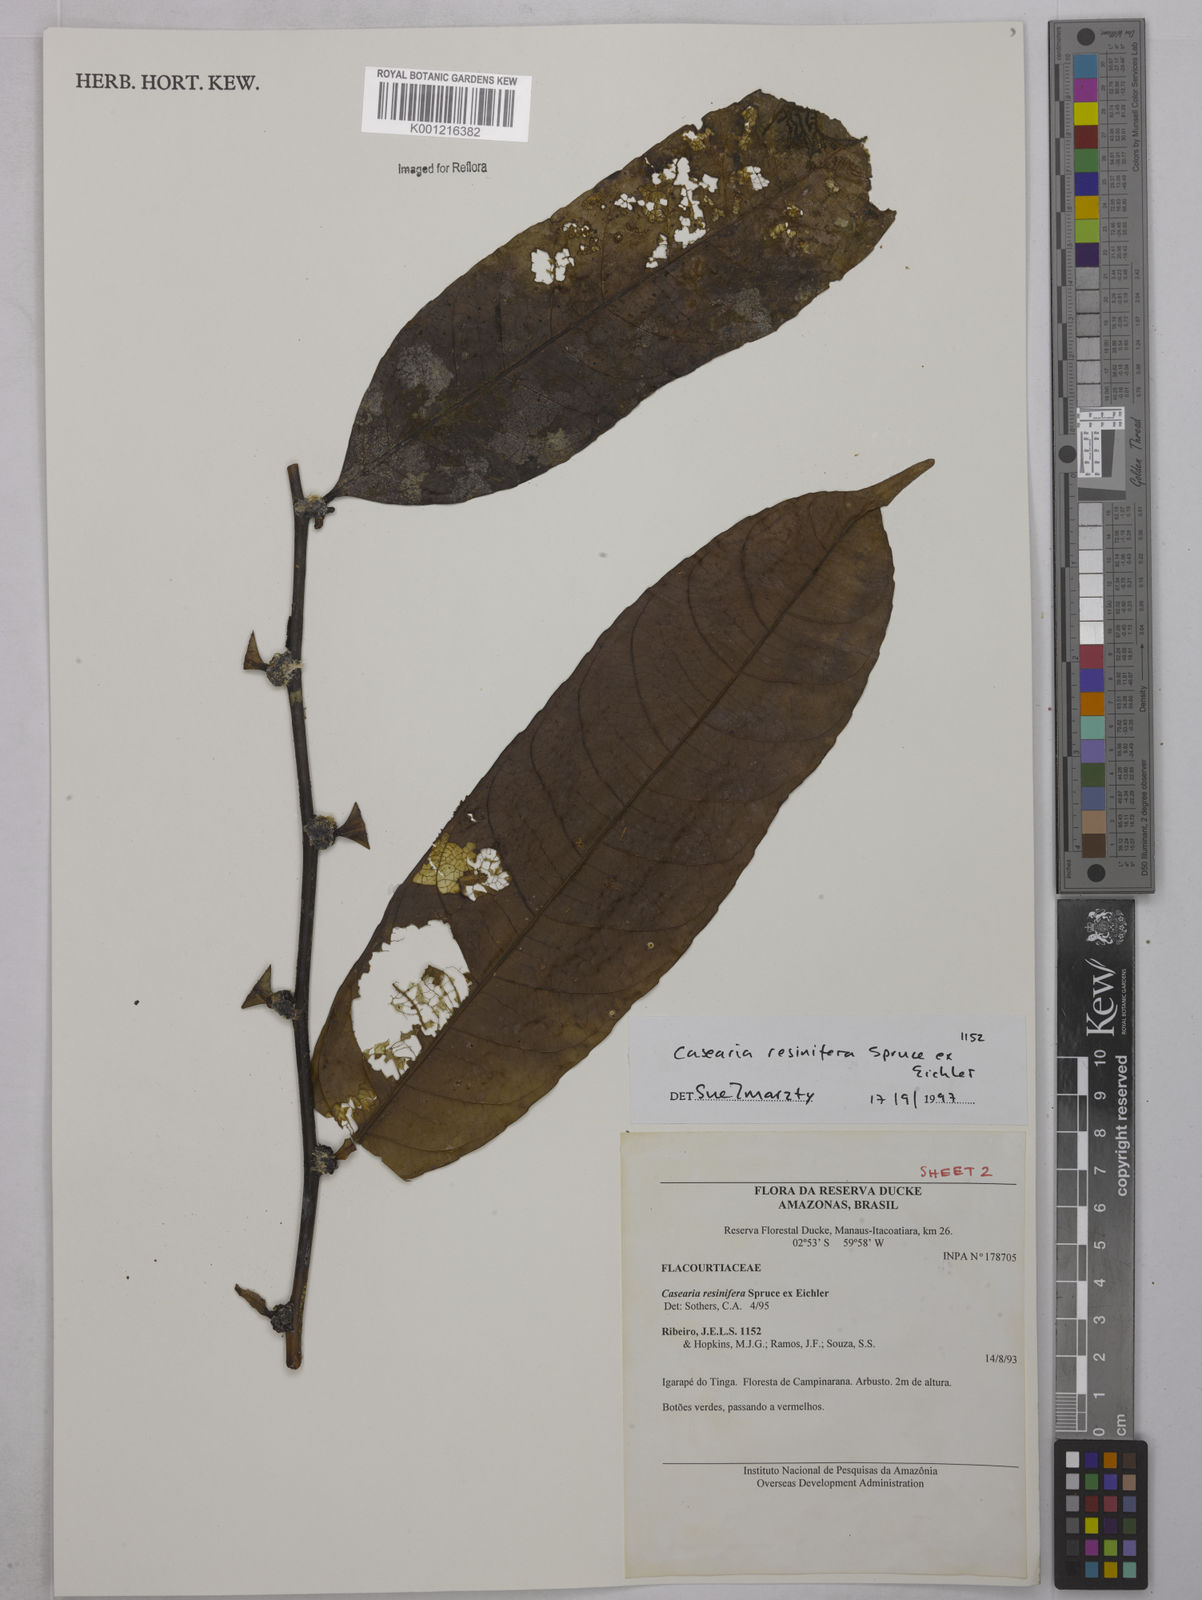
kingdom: Plantae
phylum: Tracheophyta
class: Magnoliopsida
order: Malpighiales
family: Salicaceae
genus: Casearia
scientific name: Casearia resinifera
